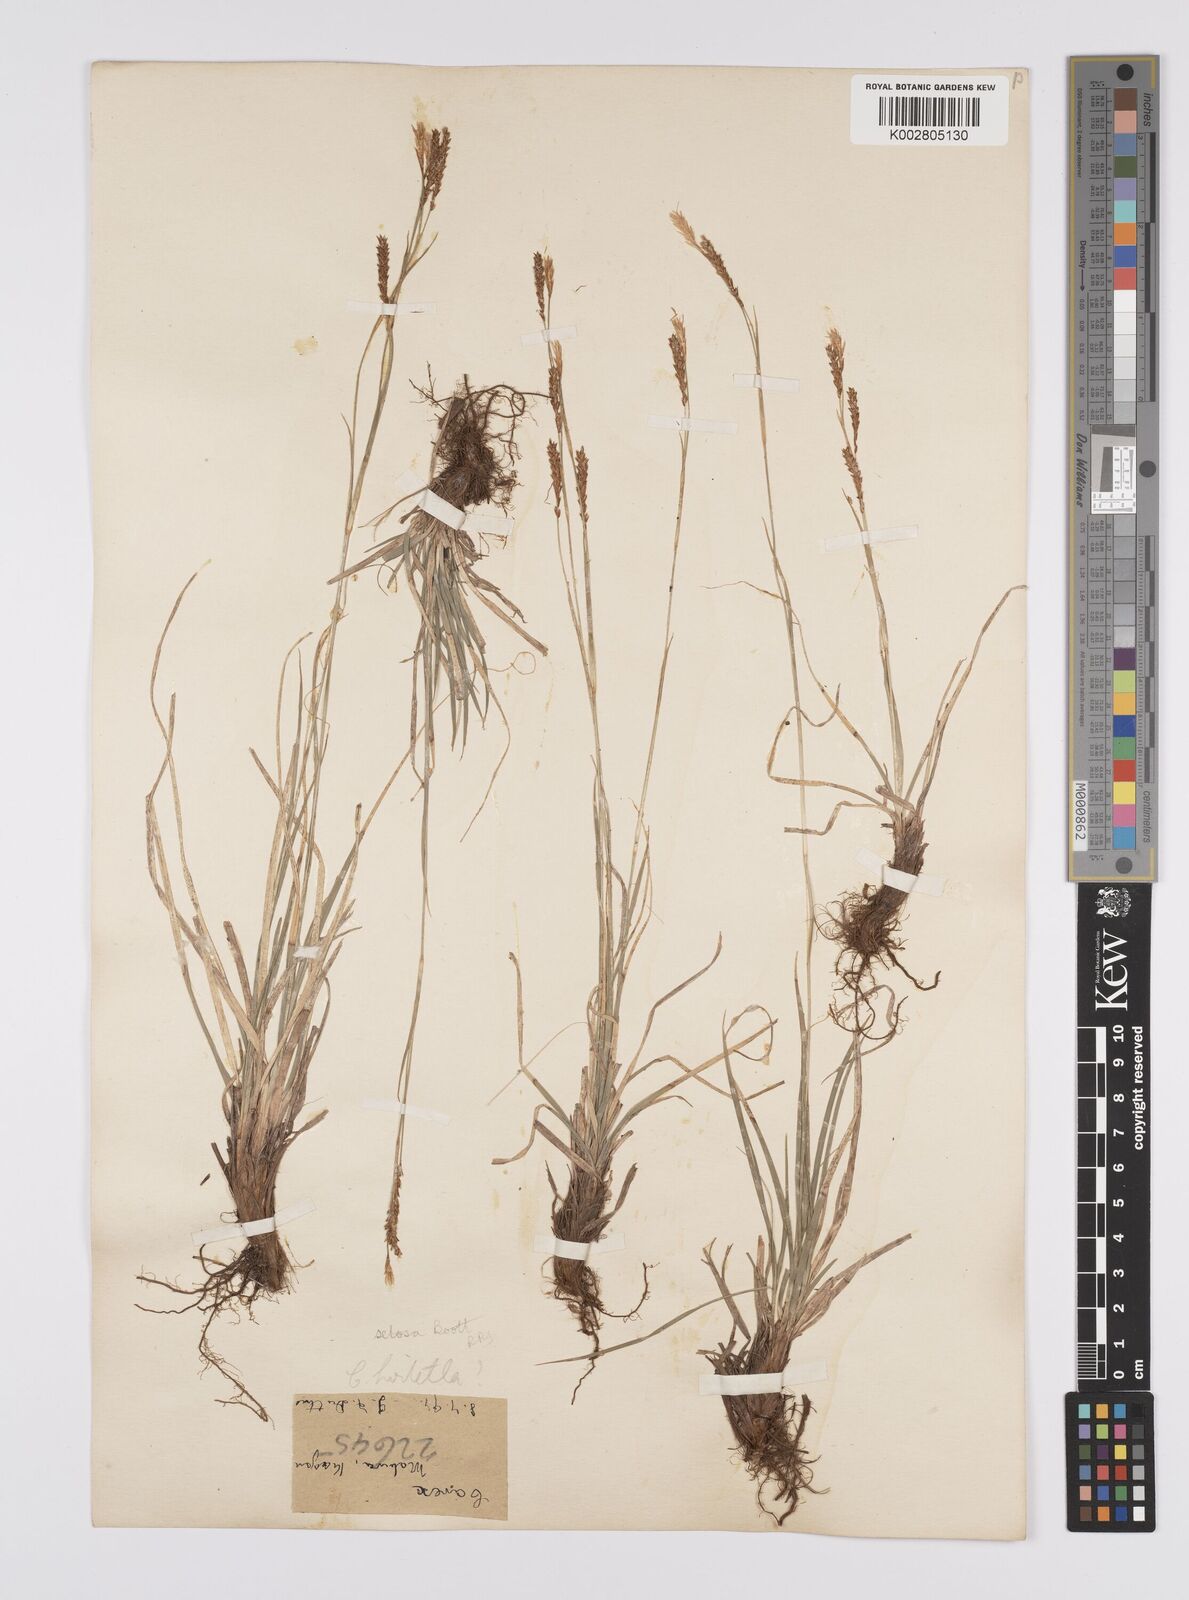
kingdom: Plantae
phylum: Tracheophyta
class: Liliopsida
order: Poales
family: Cyperaceae
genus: Carex
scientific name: Carex setosa
